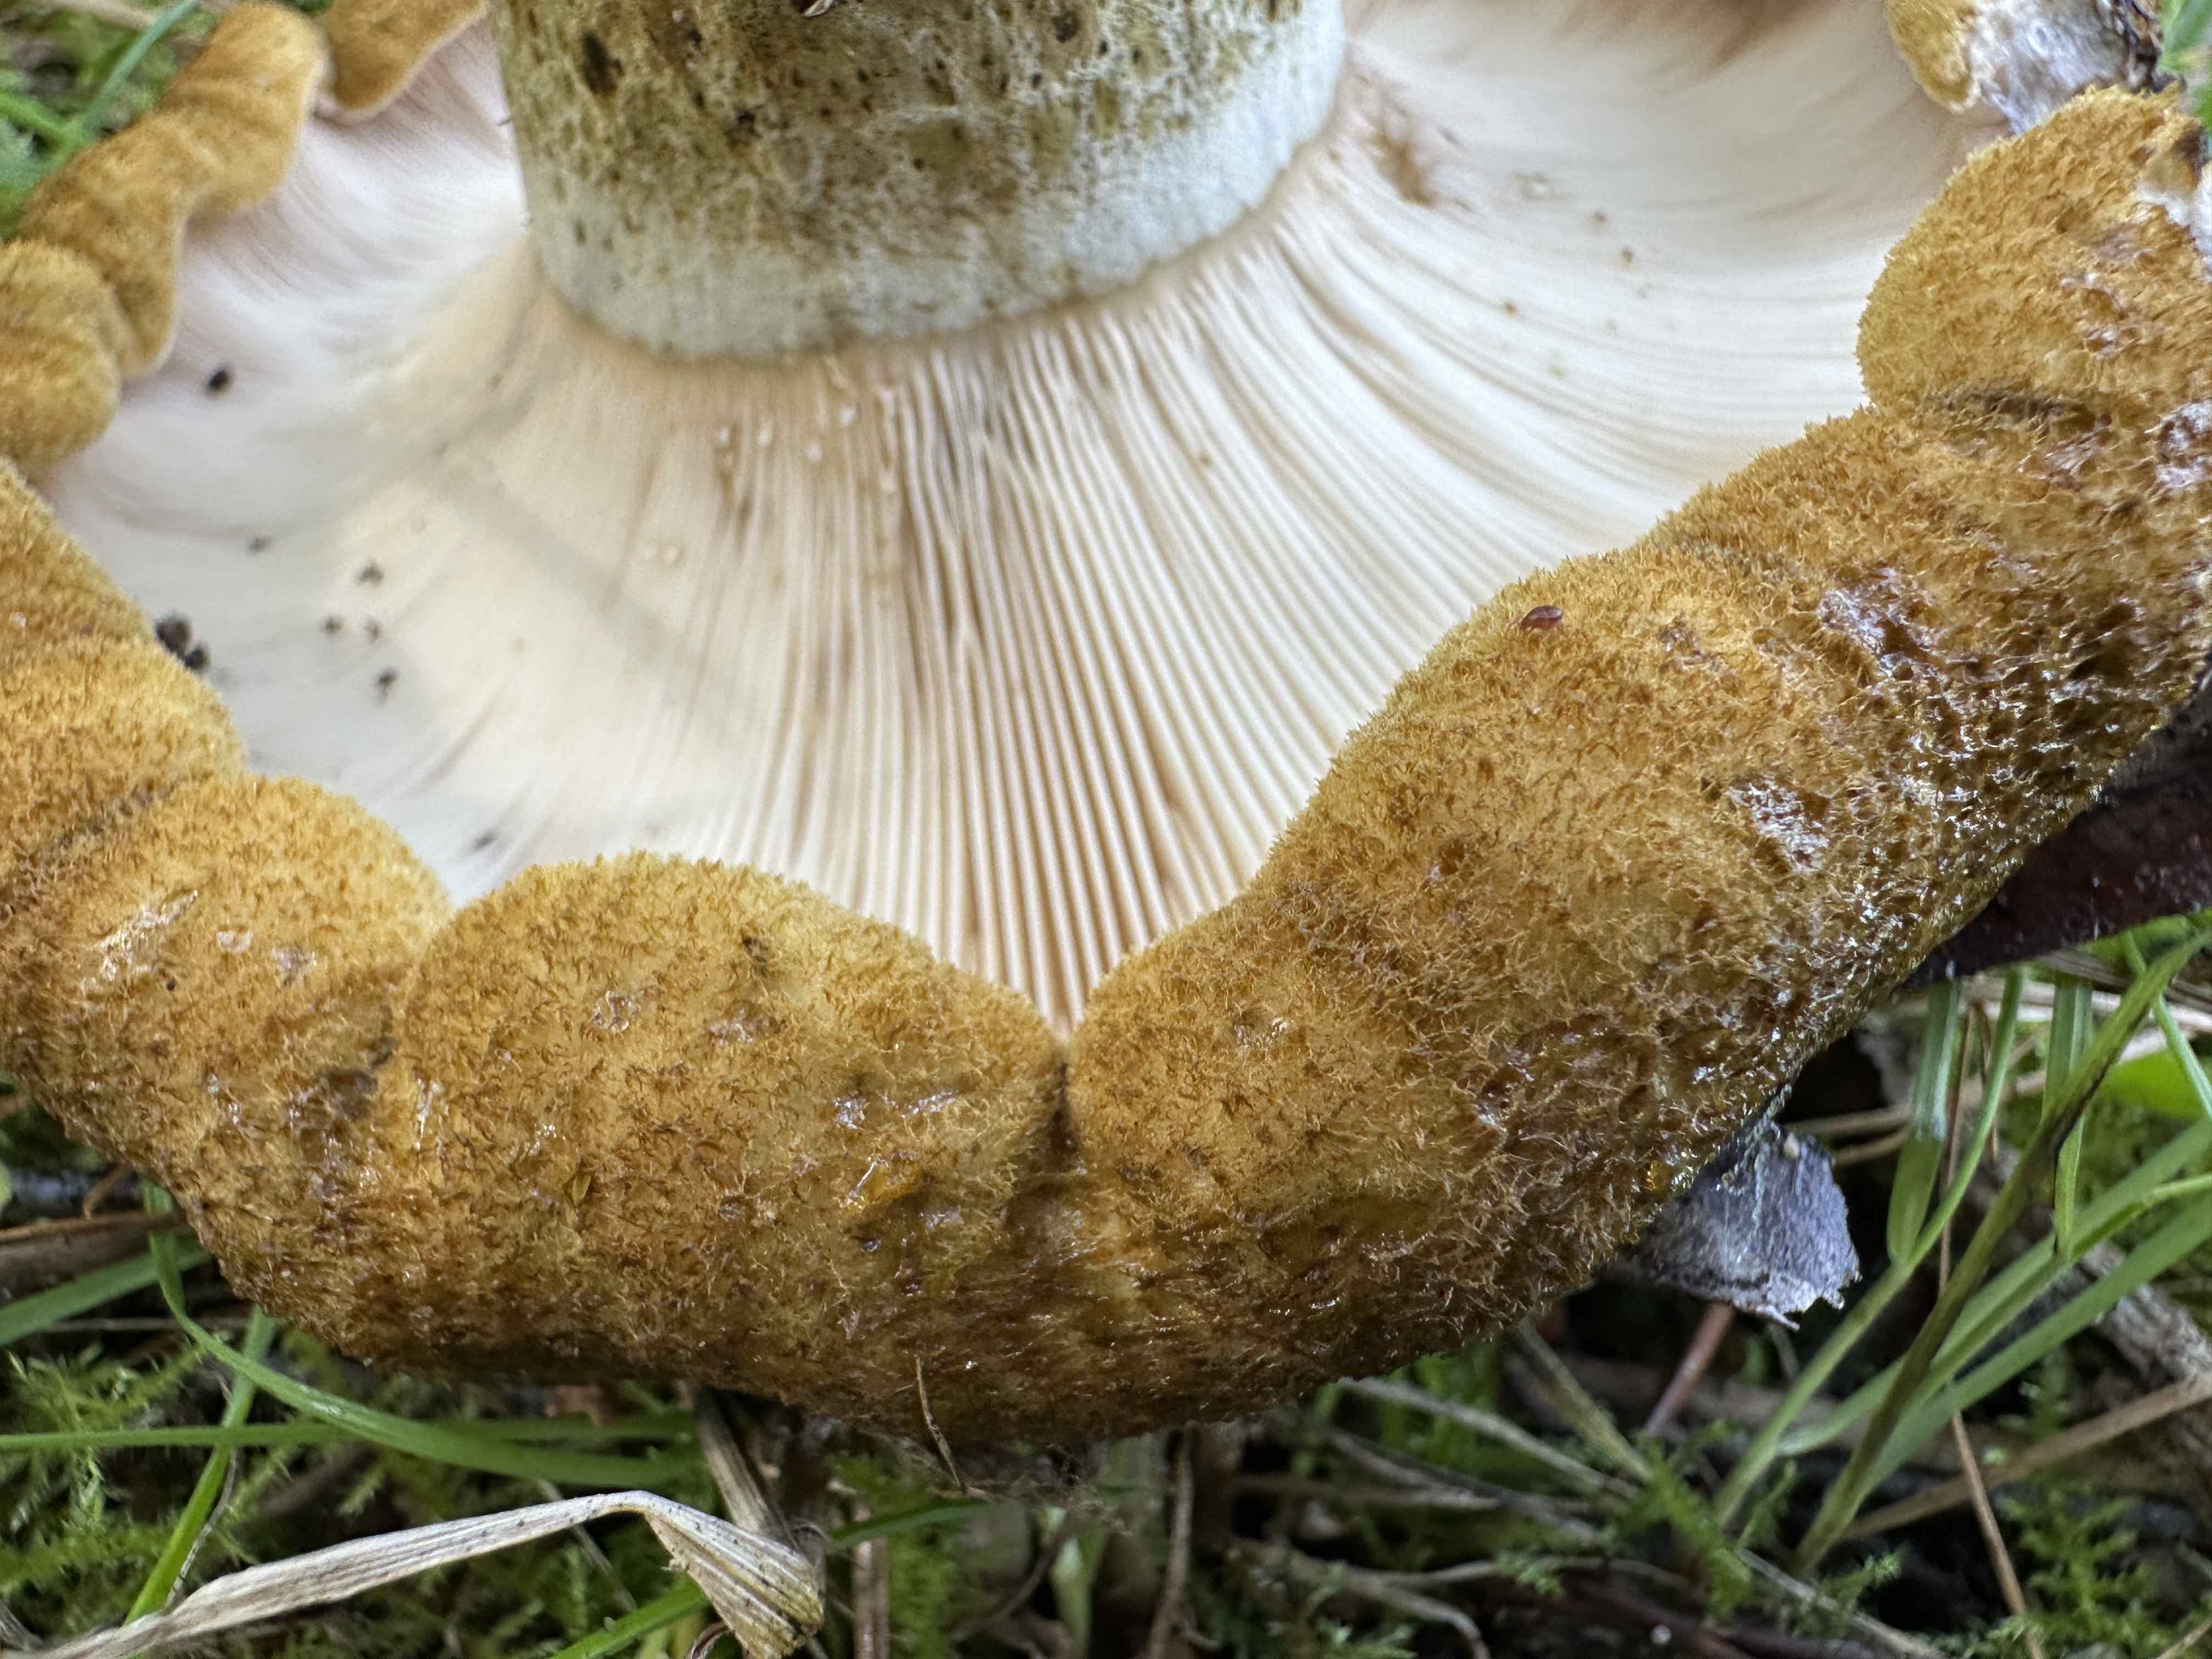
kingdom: Fungi
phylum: Basidiomycota
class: Agaricomycetes
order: Russulales
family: Russulaceae
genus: Lactarius
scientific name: Lactarius necator
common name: manddraber-mælkehat
